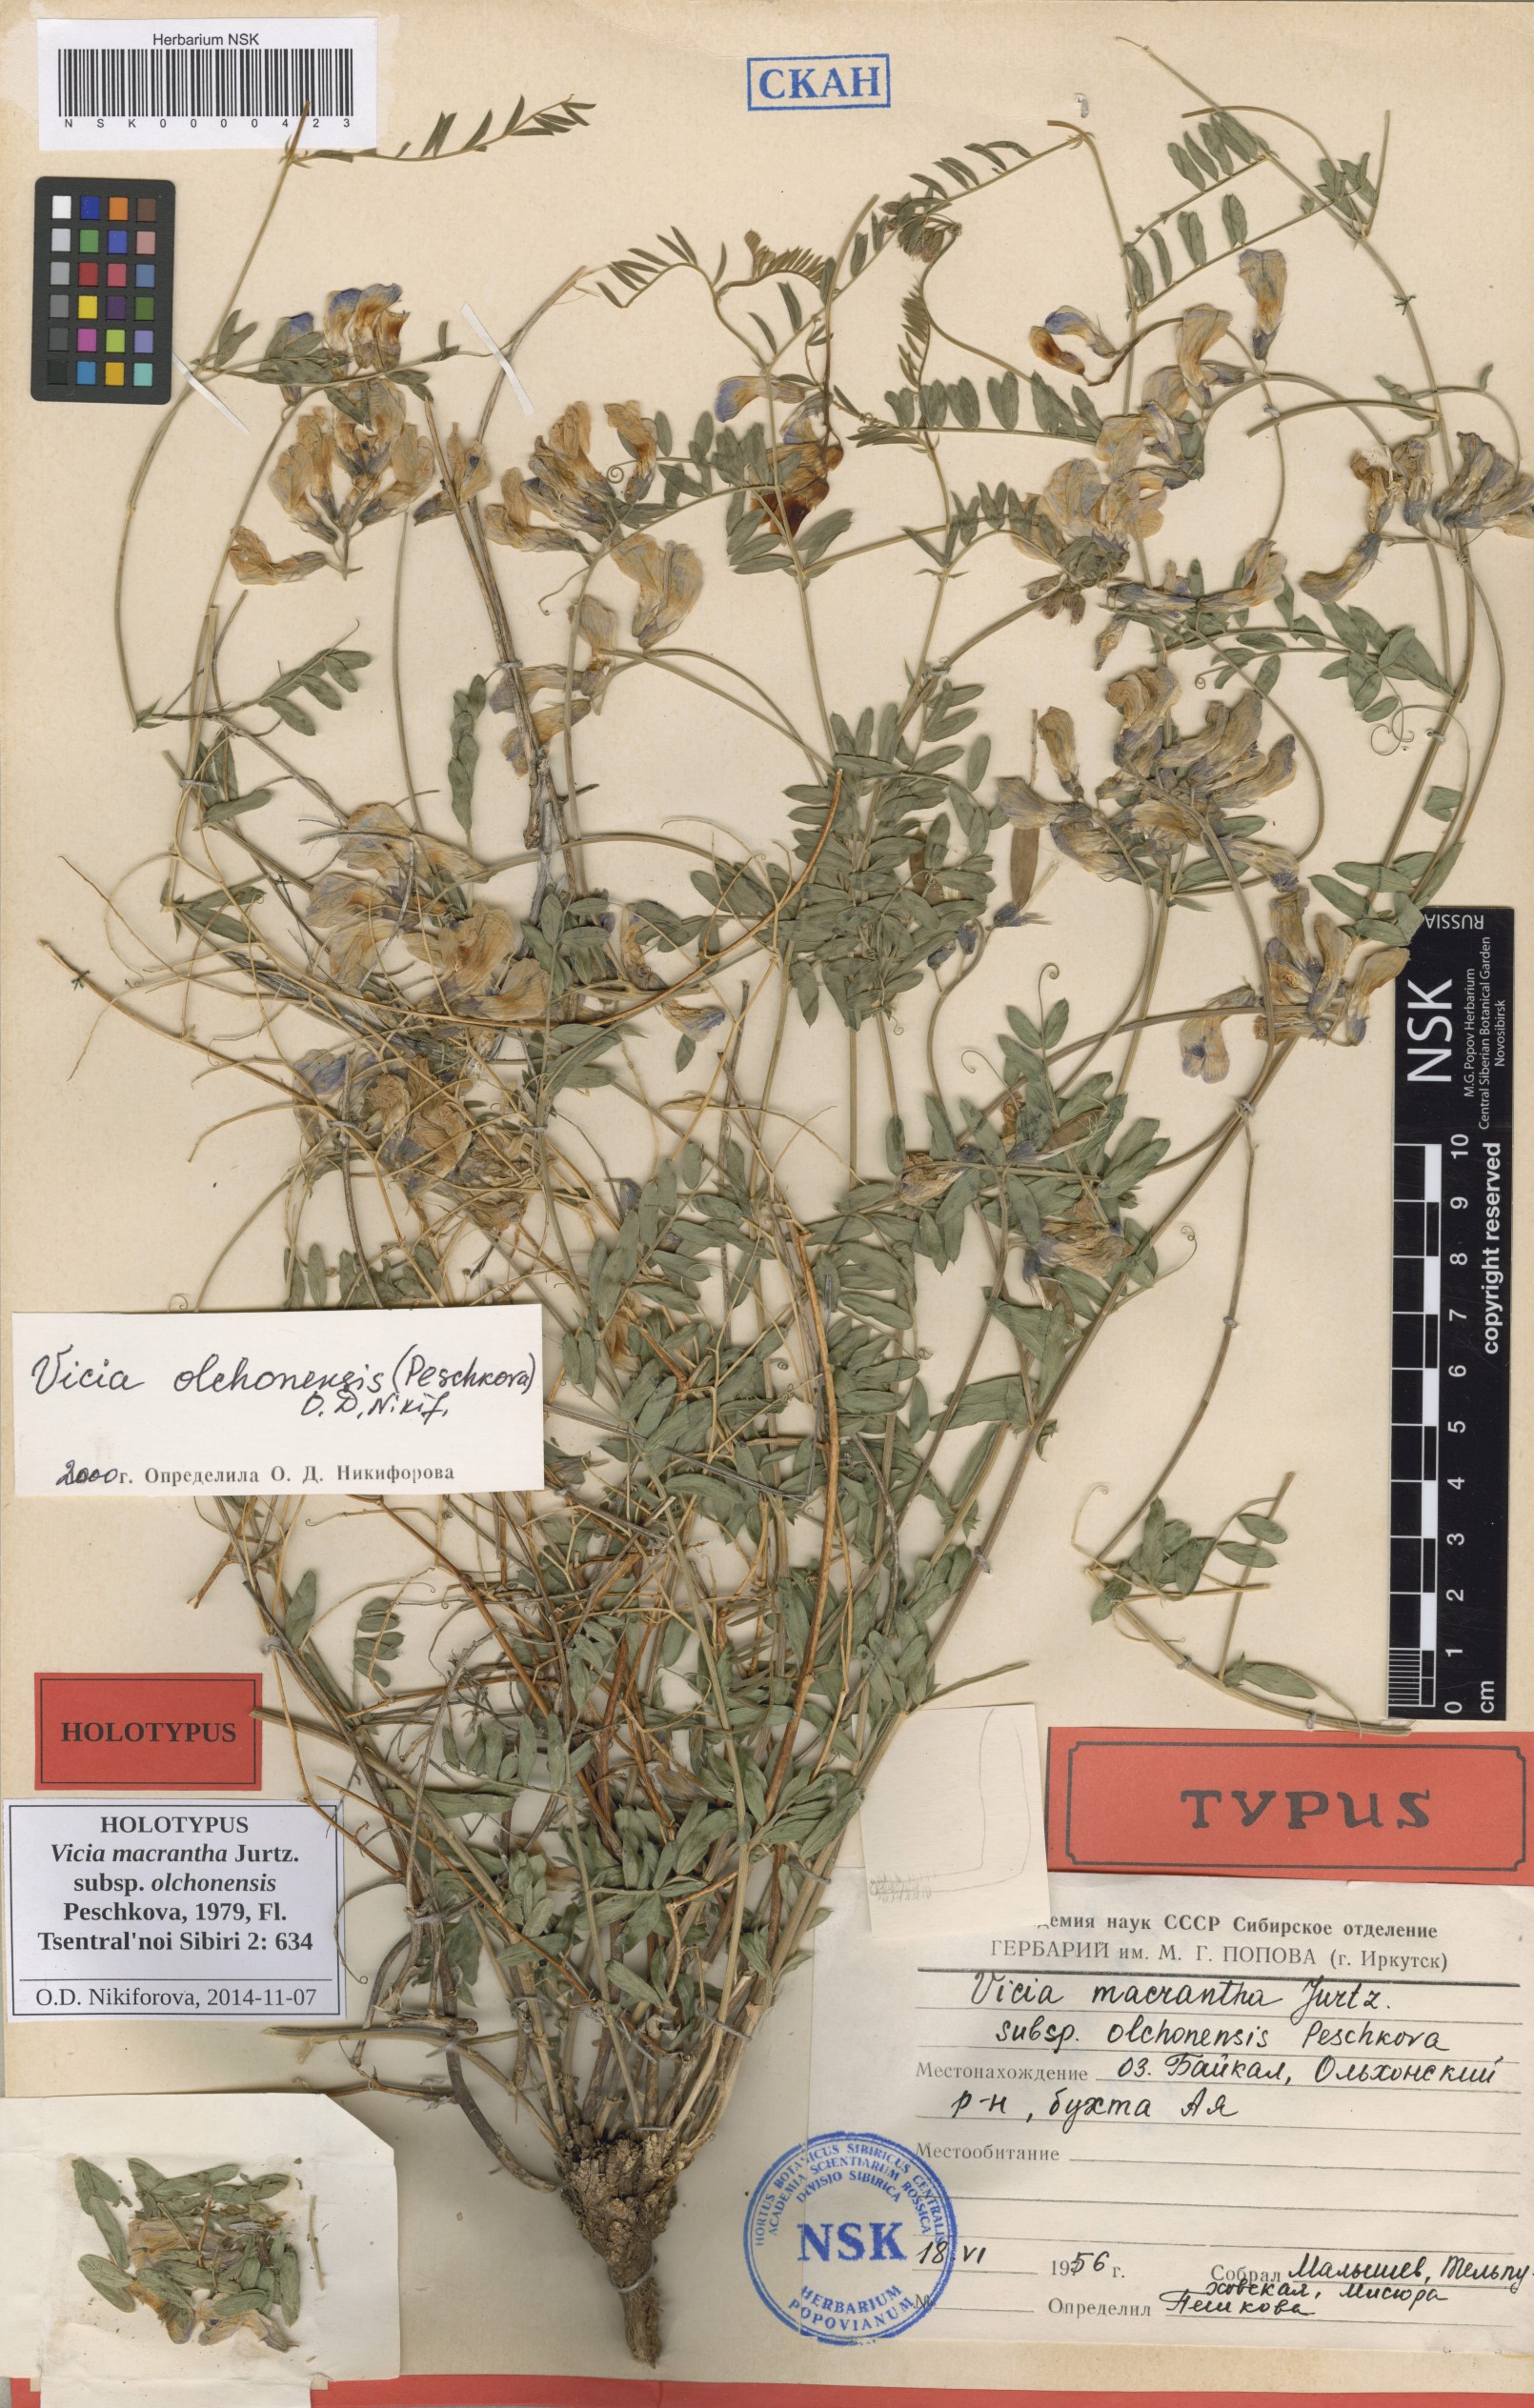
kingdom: Plantae
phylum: Tracheophyta
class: Magnoliopsida
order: Fabales
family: Fabaceae
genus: Vicia
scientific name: Vicia olchonensis
